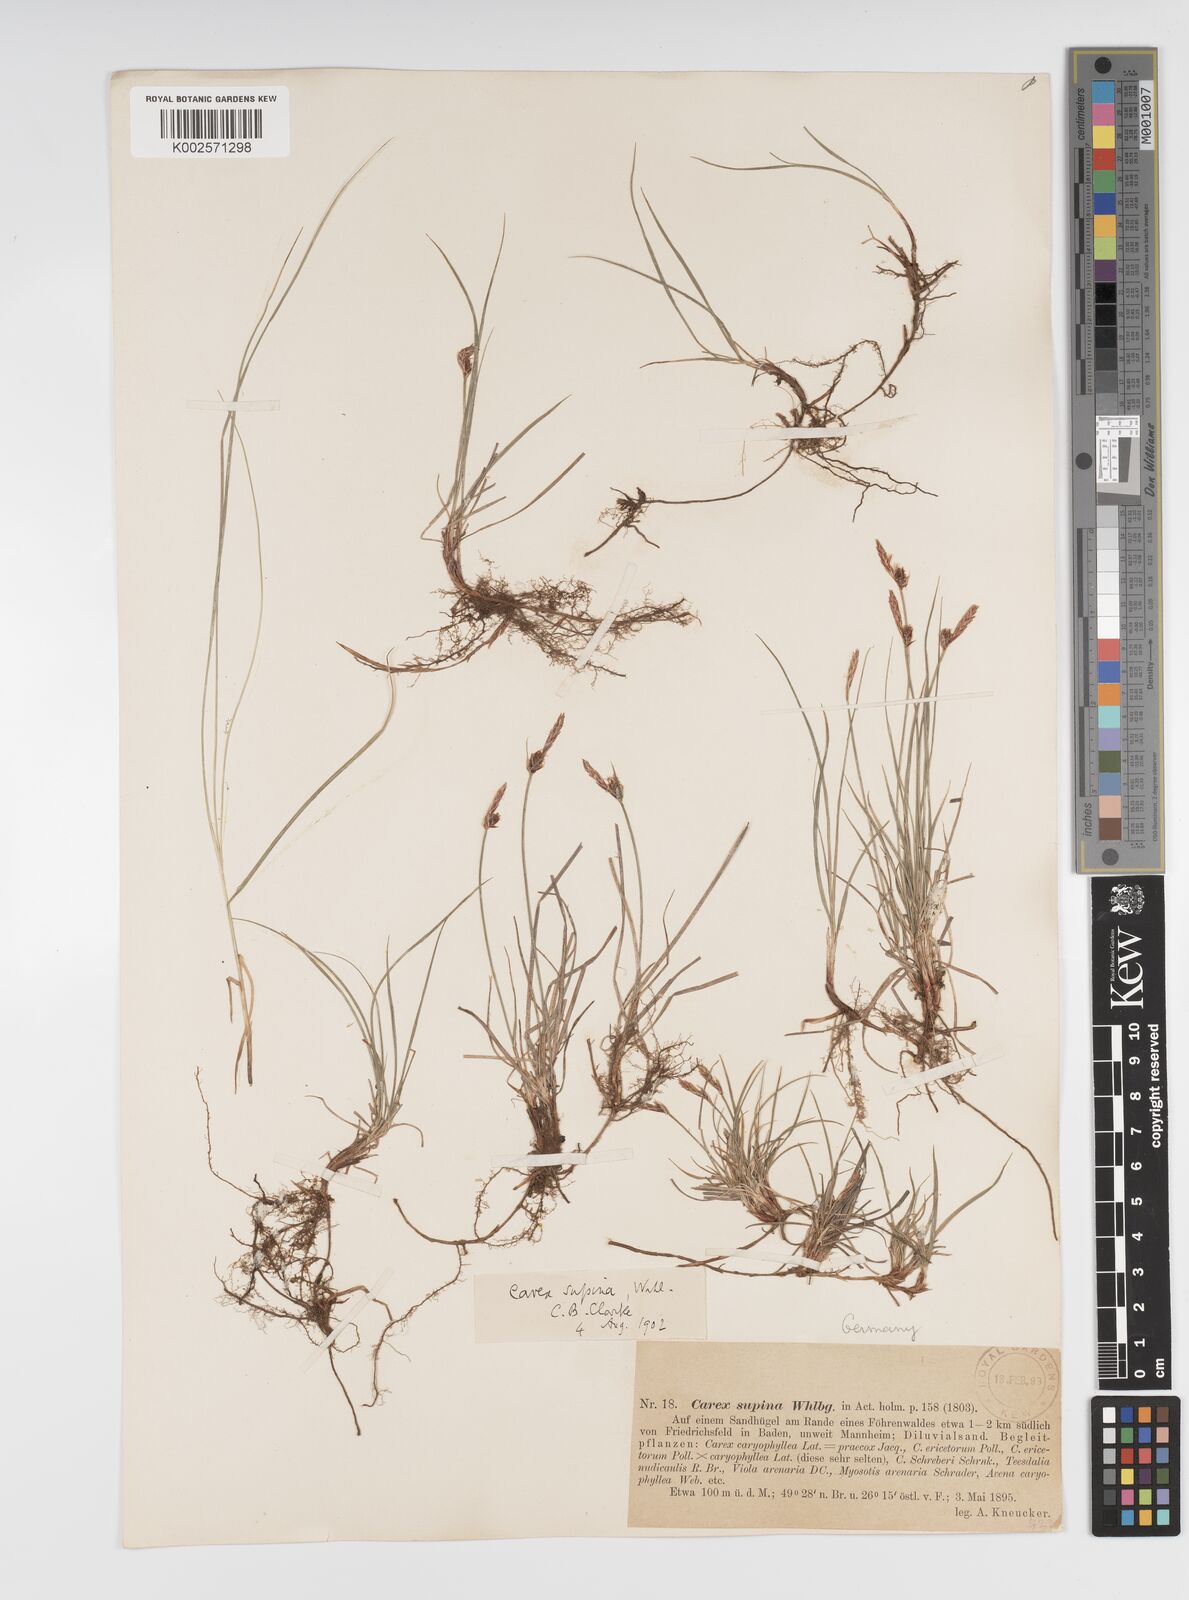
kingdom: Plantae
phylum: Tracheophyta
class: Liliopsida
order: Poales
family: Cyperaceae
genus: Carex
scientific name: Carex supina
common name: Lying-back sedge
